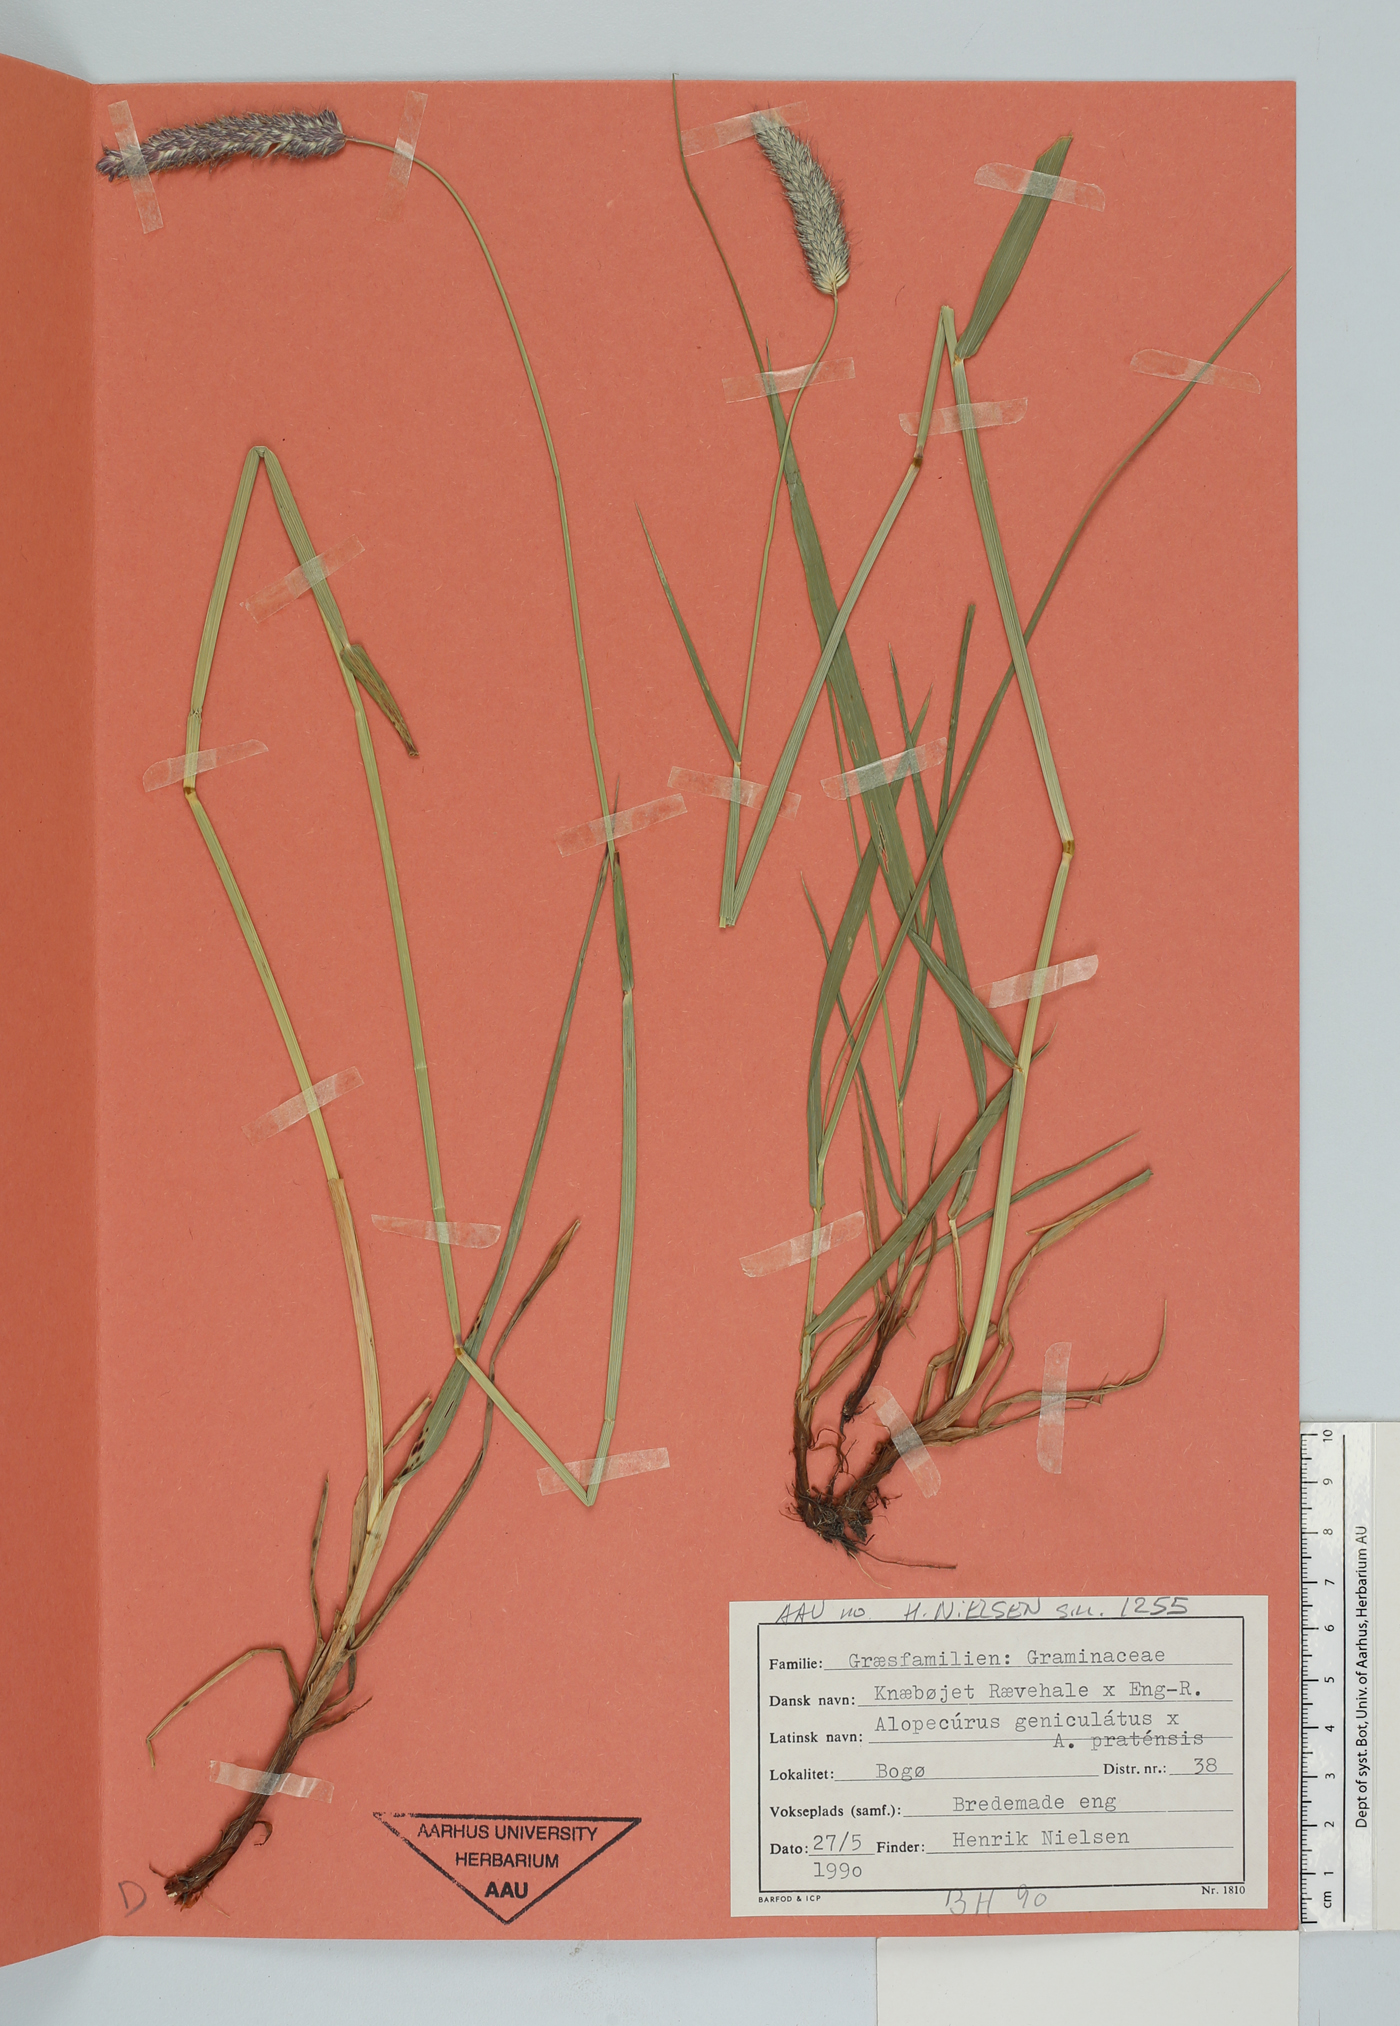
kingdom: Plantae
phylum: Tracheophyta
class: Liliopsida
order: Poales
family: Poaceae
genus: Alopecurus
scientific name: Alopecurus
